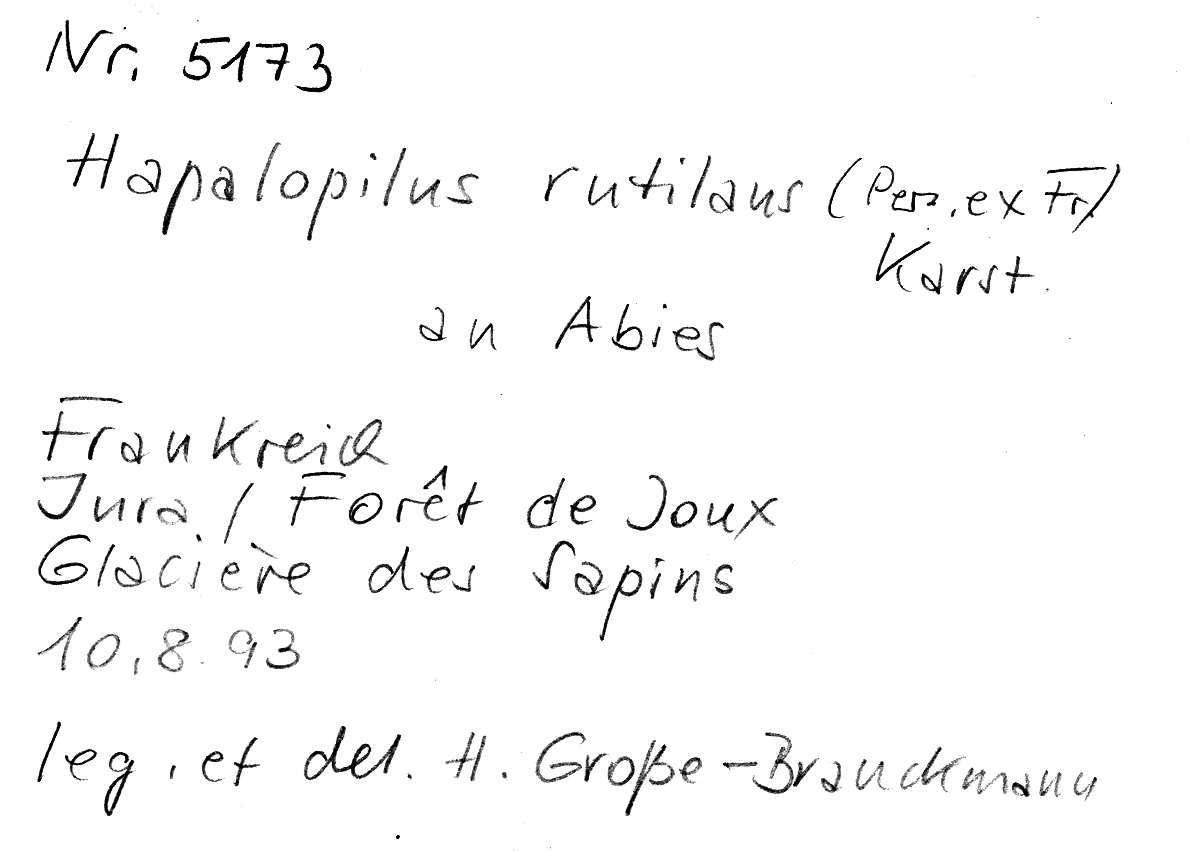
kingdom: Plantae
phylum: Tracheophyta
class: Pinopsida
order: Pinales
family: Pinaceae
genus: Abies
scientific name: Abies
